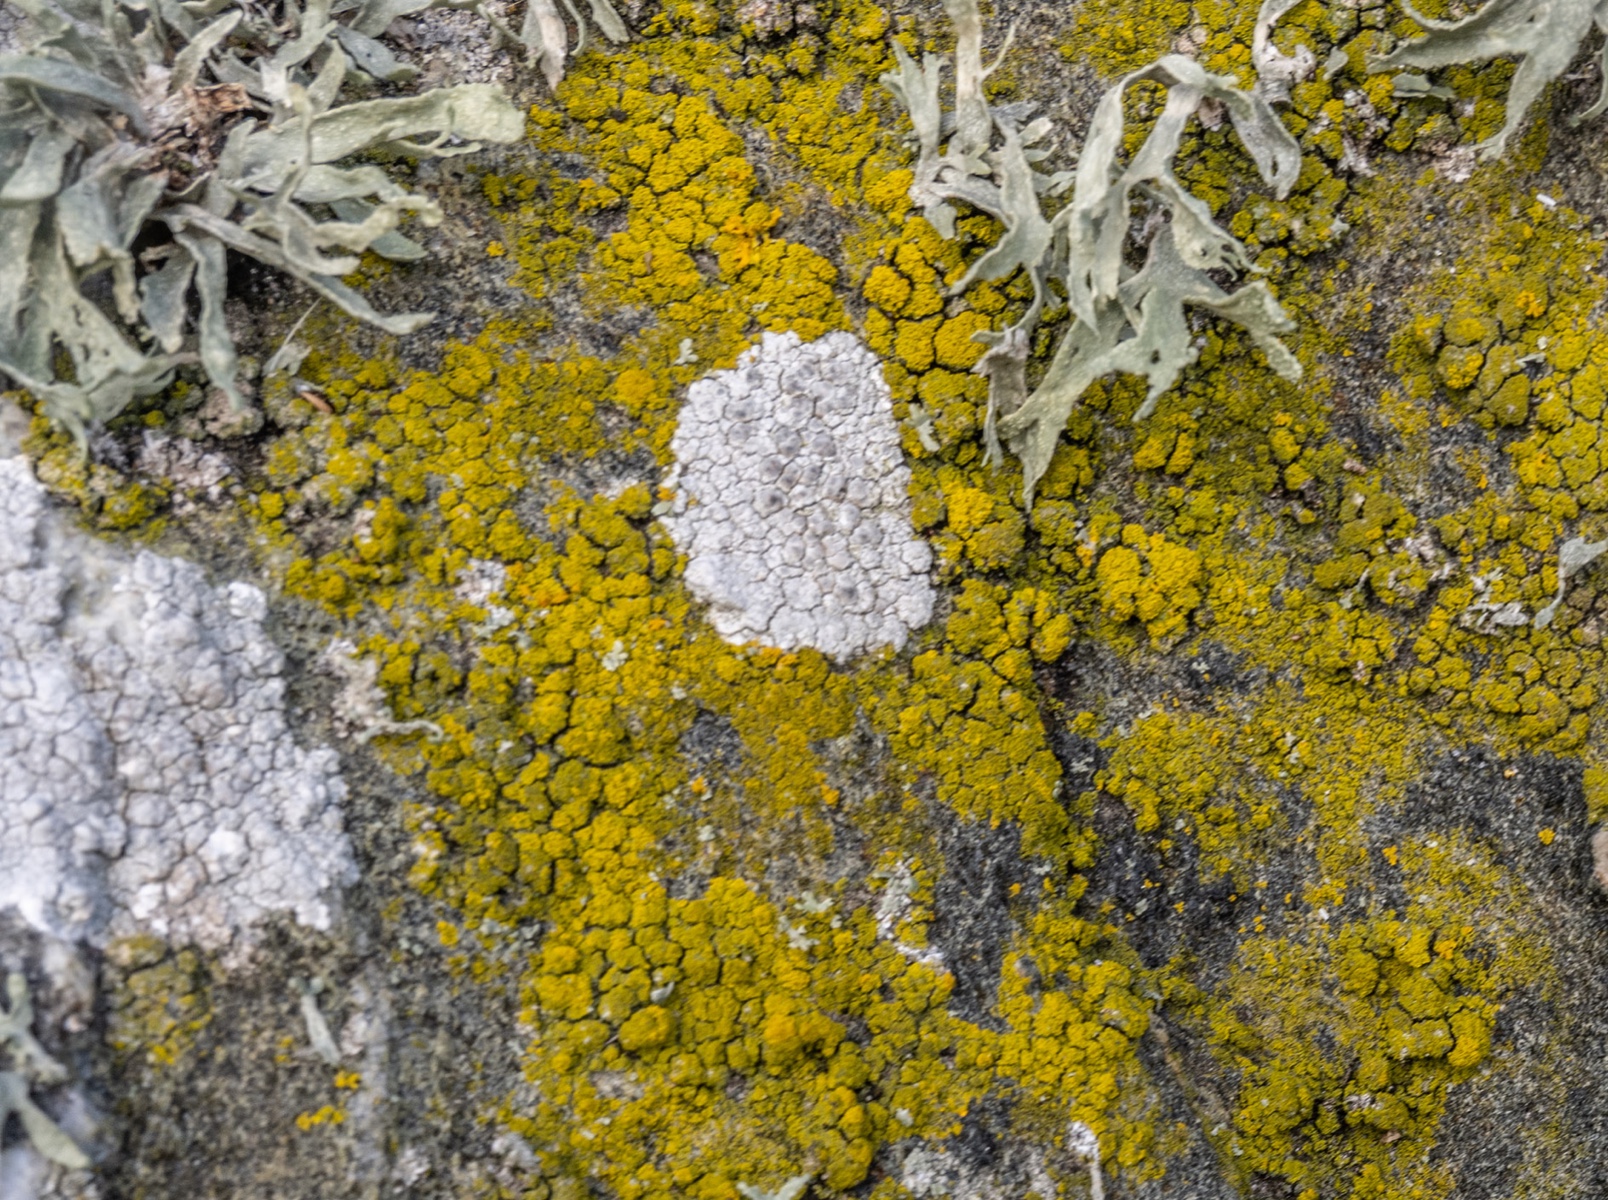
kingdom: Fungi
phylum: Ascomycota
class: Candelariomycetes
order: Candelariales
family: Candelariaceae
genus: Candelariella
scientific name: Candelariella vitellina
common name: almindelig æggeblommelav
